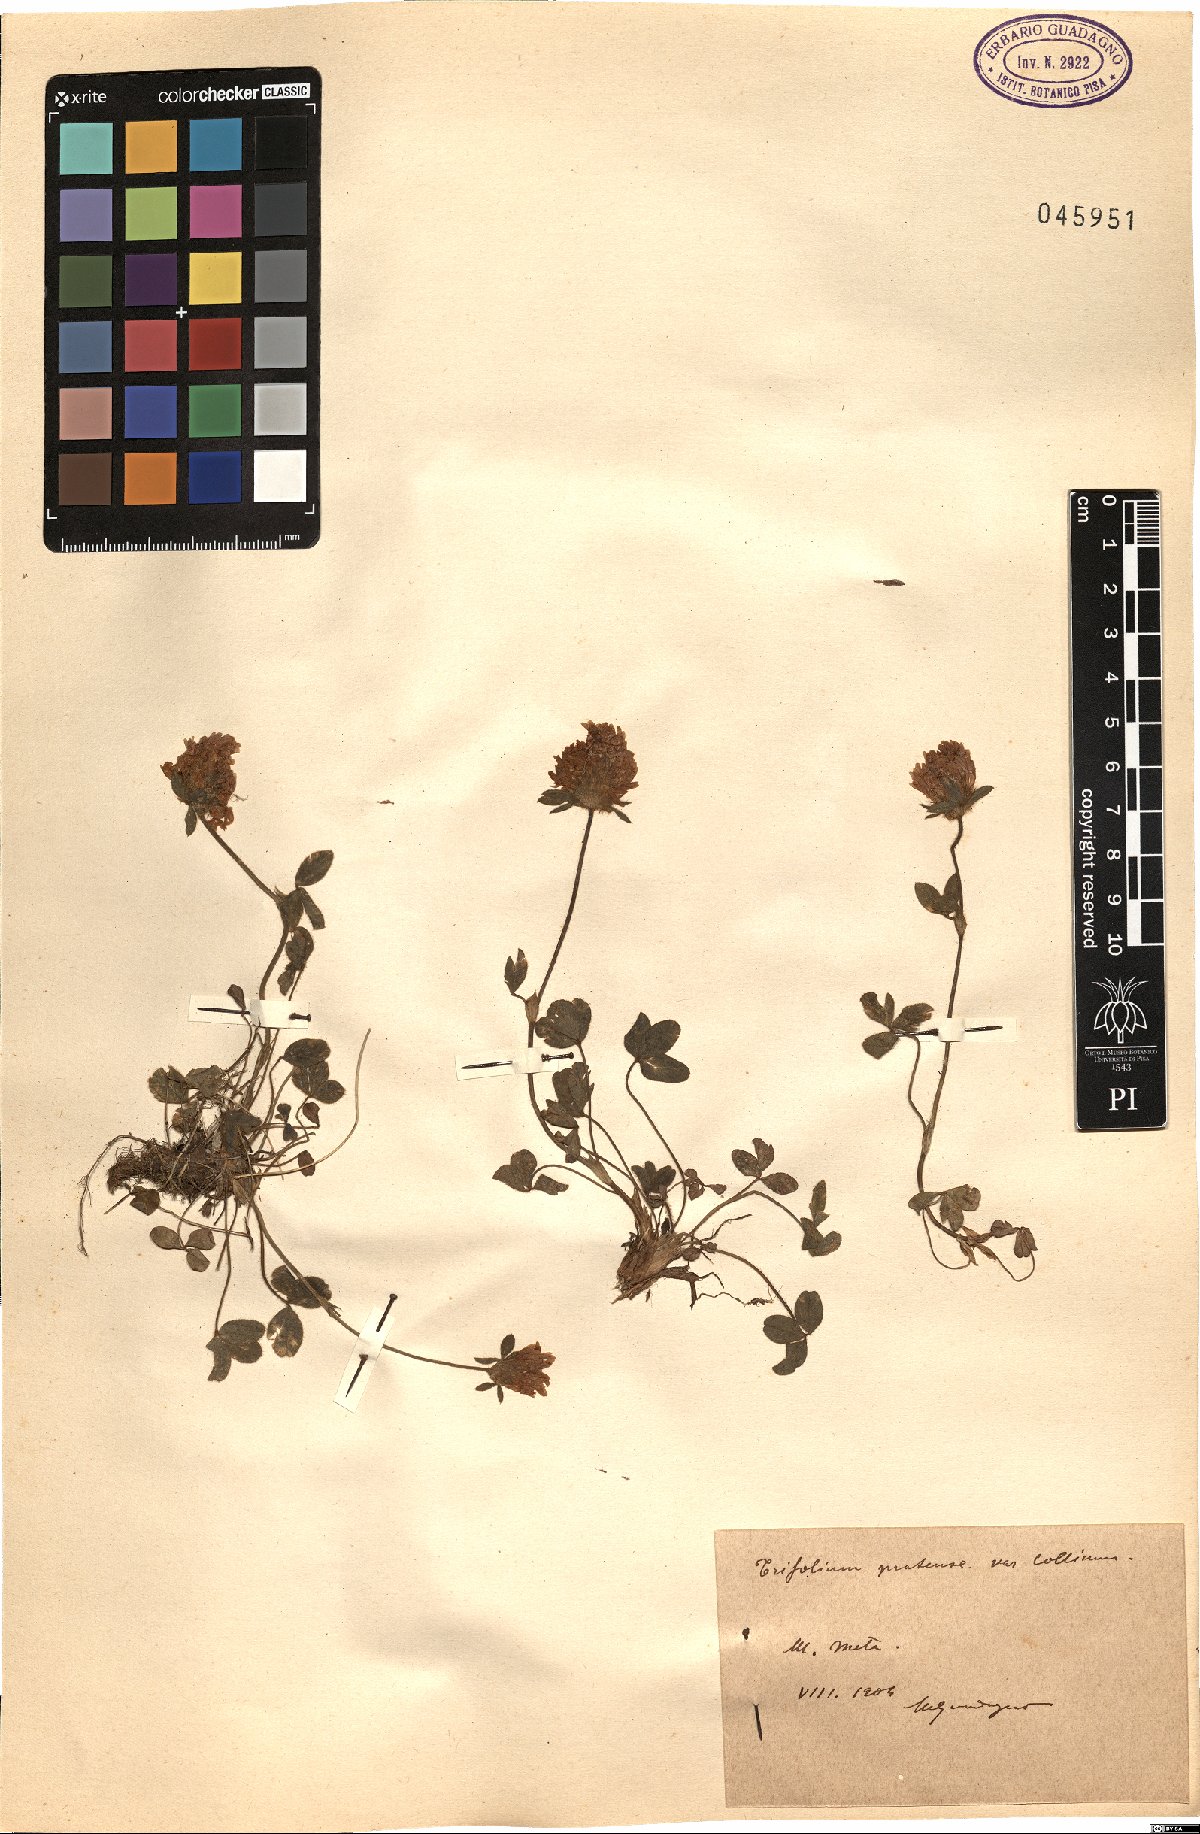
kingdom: Plantae
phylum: Tracheophyta
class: Magnoliopsida
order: Fabales
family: Fabaceae
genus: Trifolium
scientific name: Trifolium pratense
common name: Red clover
